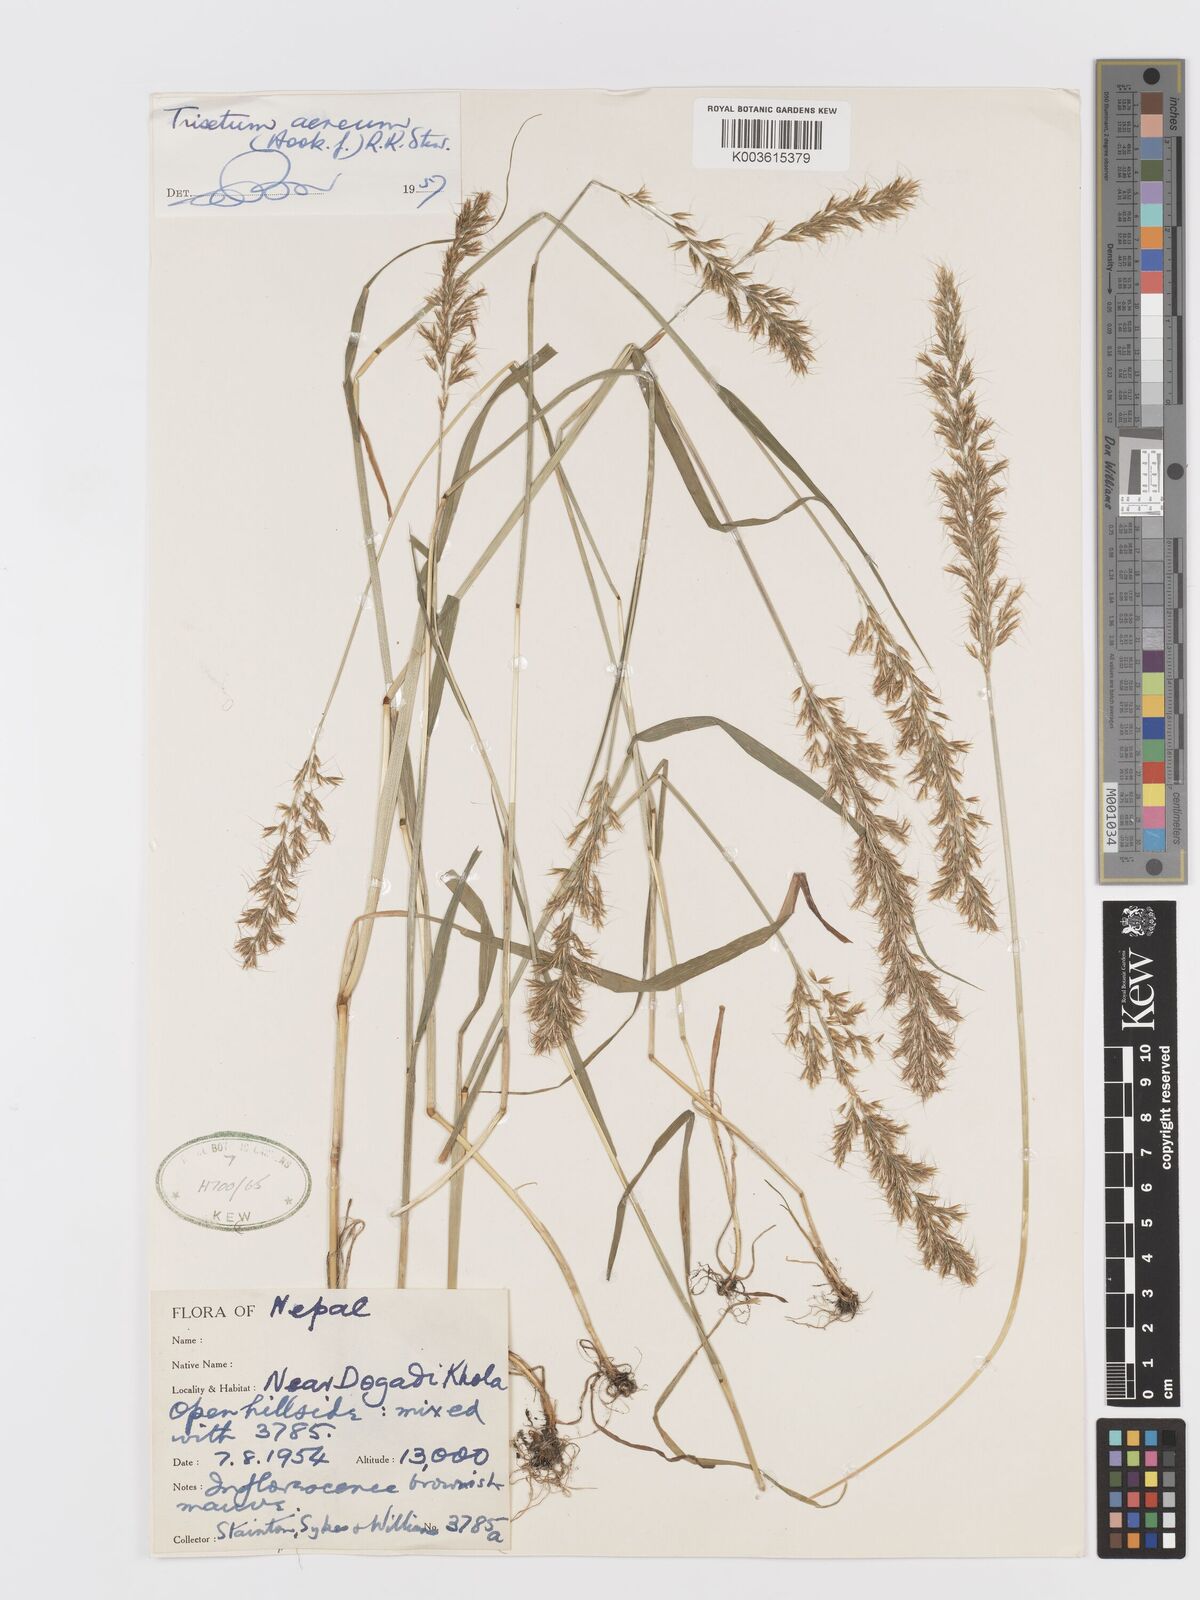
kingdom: Plantae
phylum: Tracheophyta
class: Liliopsida
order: Poales
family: Poaceae
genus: Sibirotrisetum
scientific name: Sibirotrisetum aeneum
